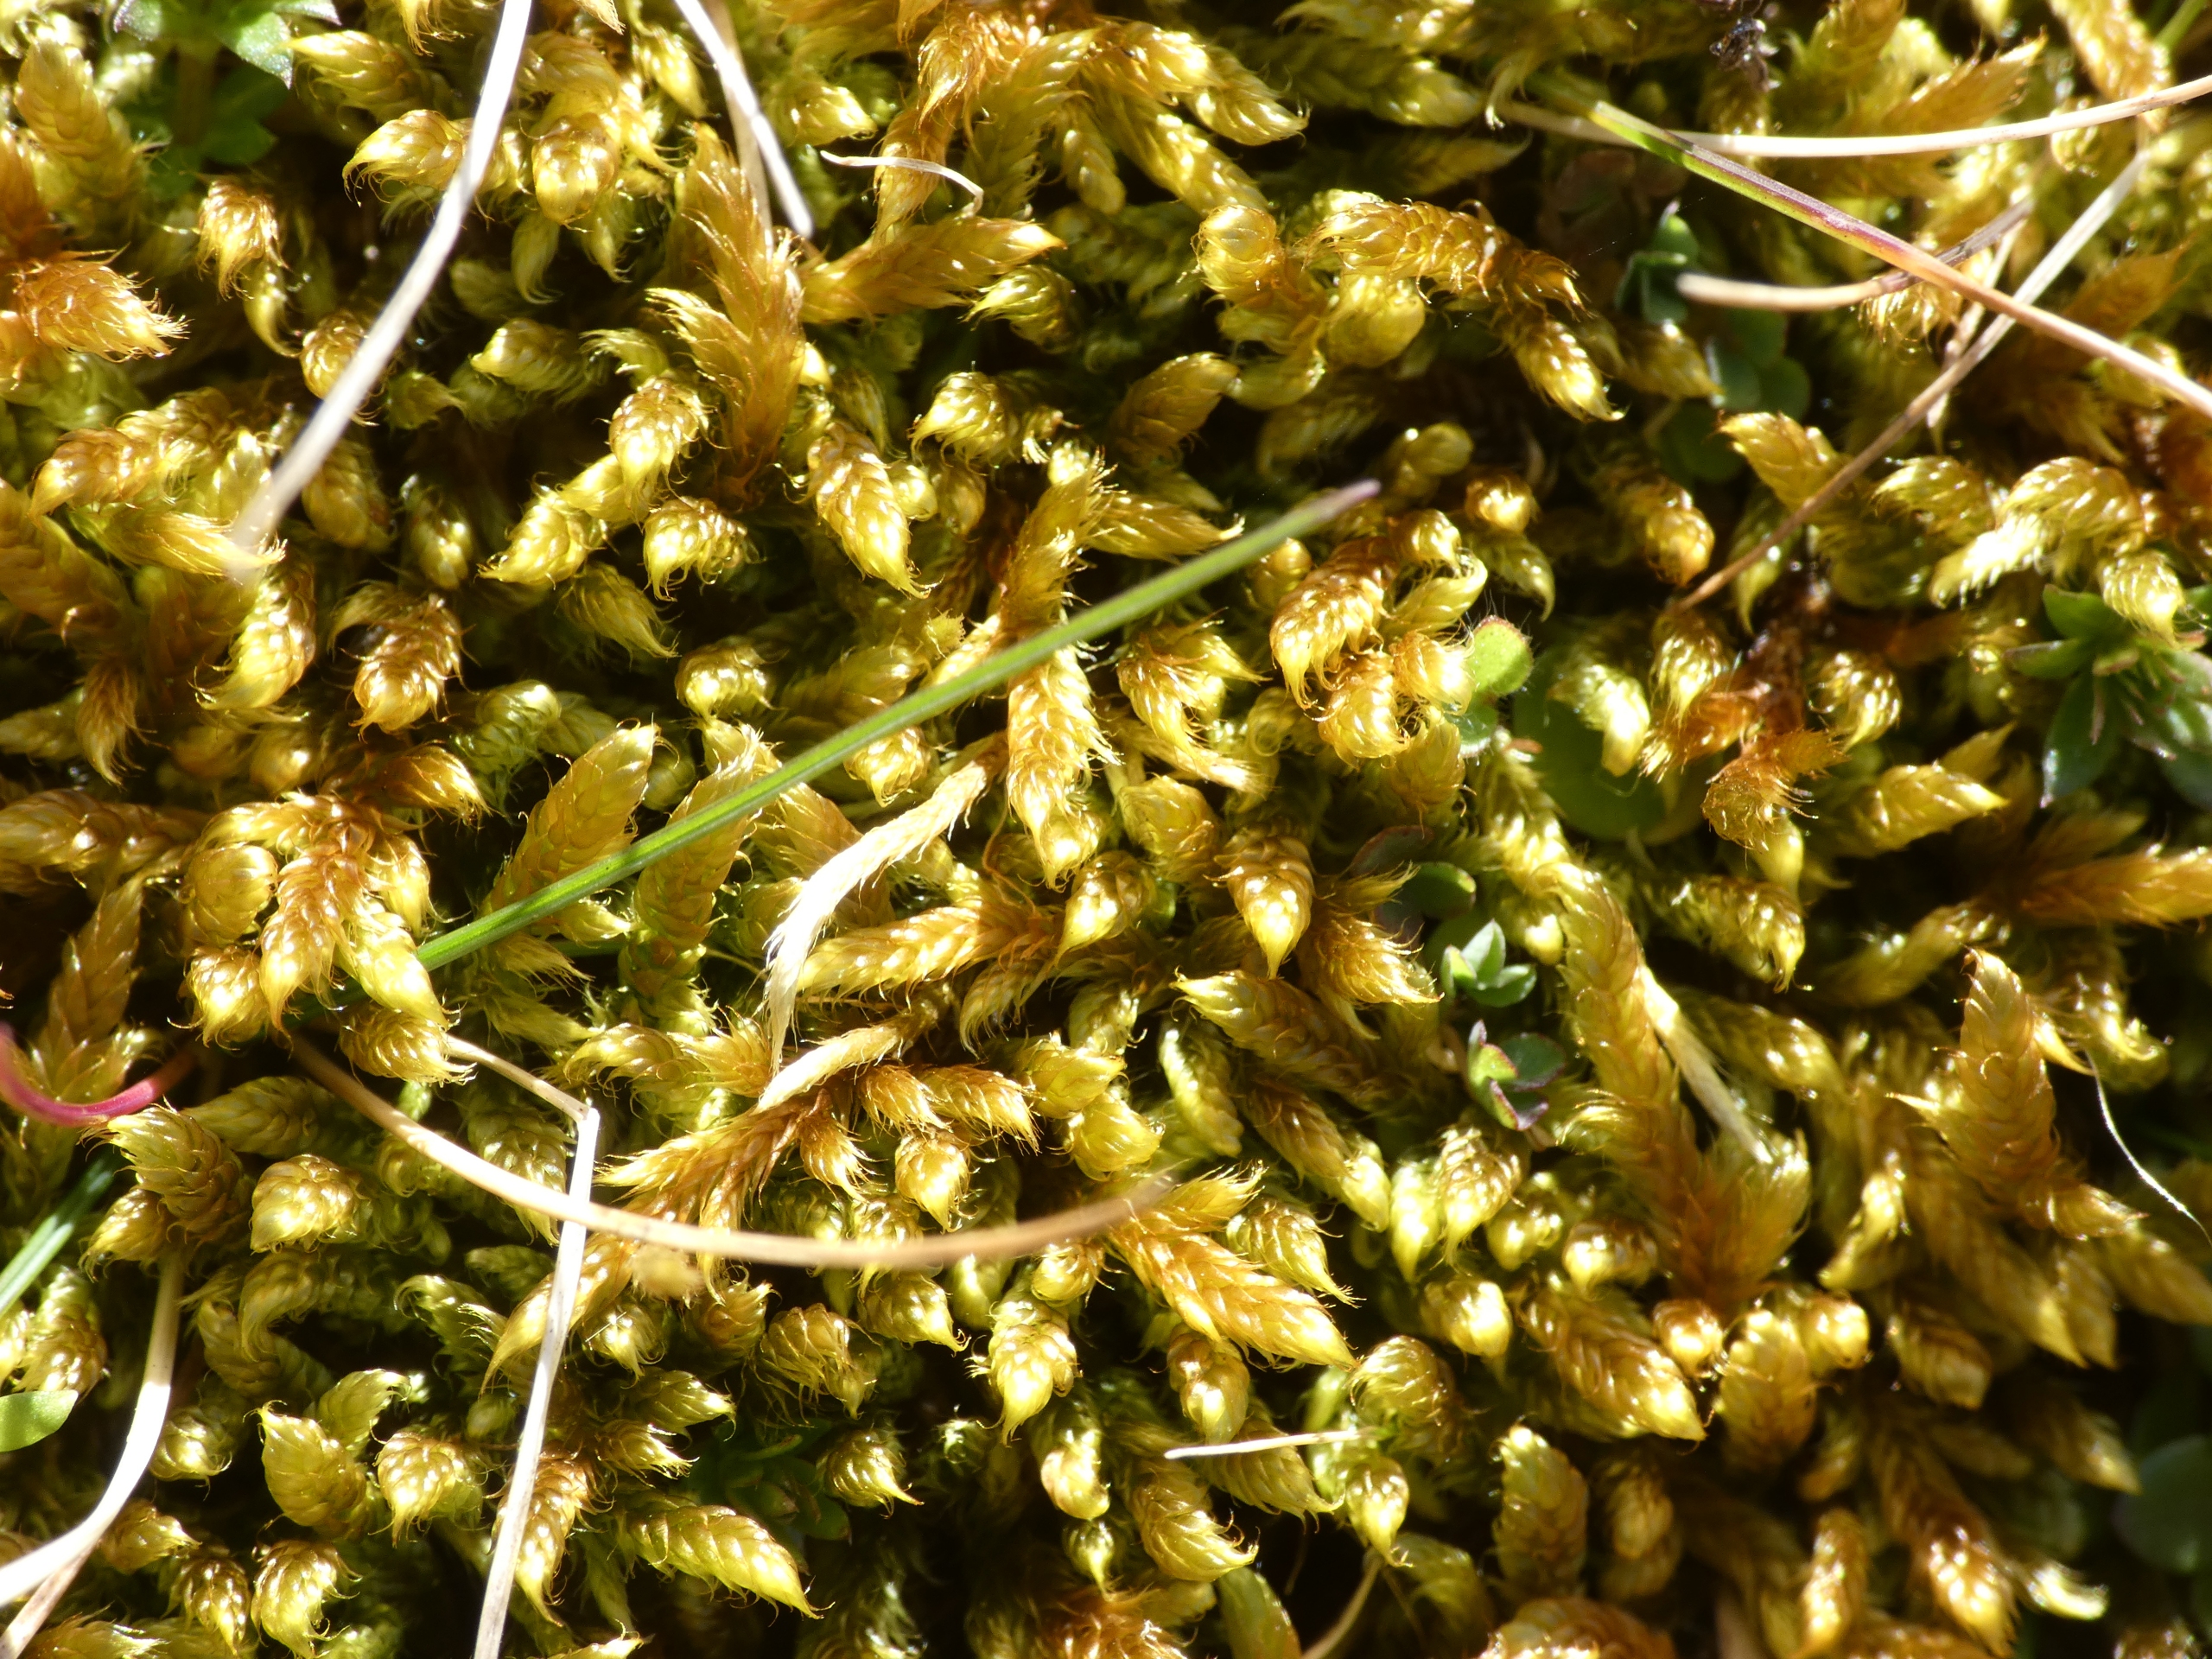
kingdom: Plantae
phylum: Bryophyta
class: Bryopsida
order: Hypnales
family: Hypnaceae
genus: Hypnum
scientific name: Hypnum cupressiforme
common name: Almindelig cypresmos
